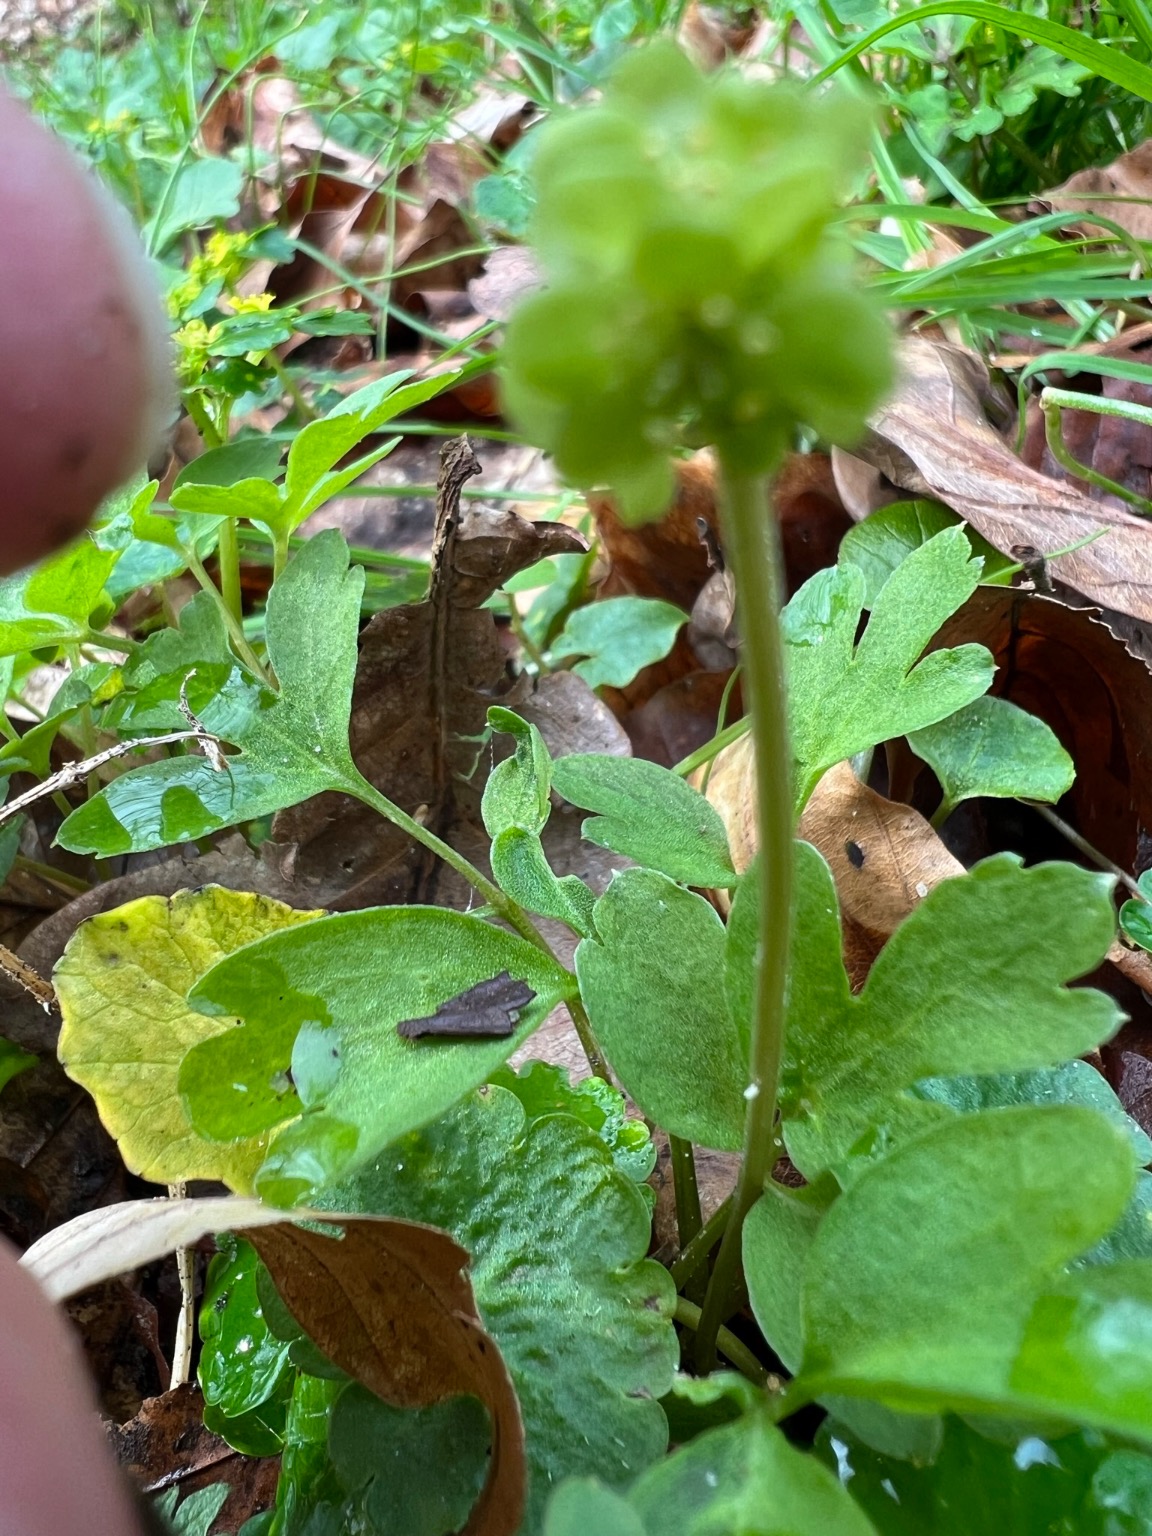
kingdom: Plantae
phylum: Tracheophyta
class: Magnoliopsida
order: Dipsacales
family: Viburnaceae
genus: Adoxa
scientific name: Adoxa moschatellina
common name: Desmerurt
